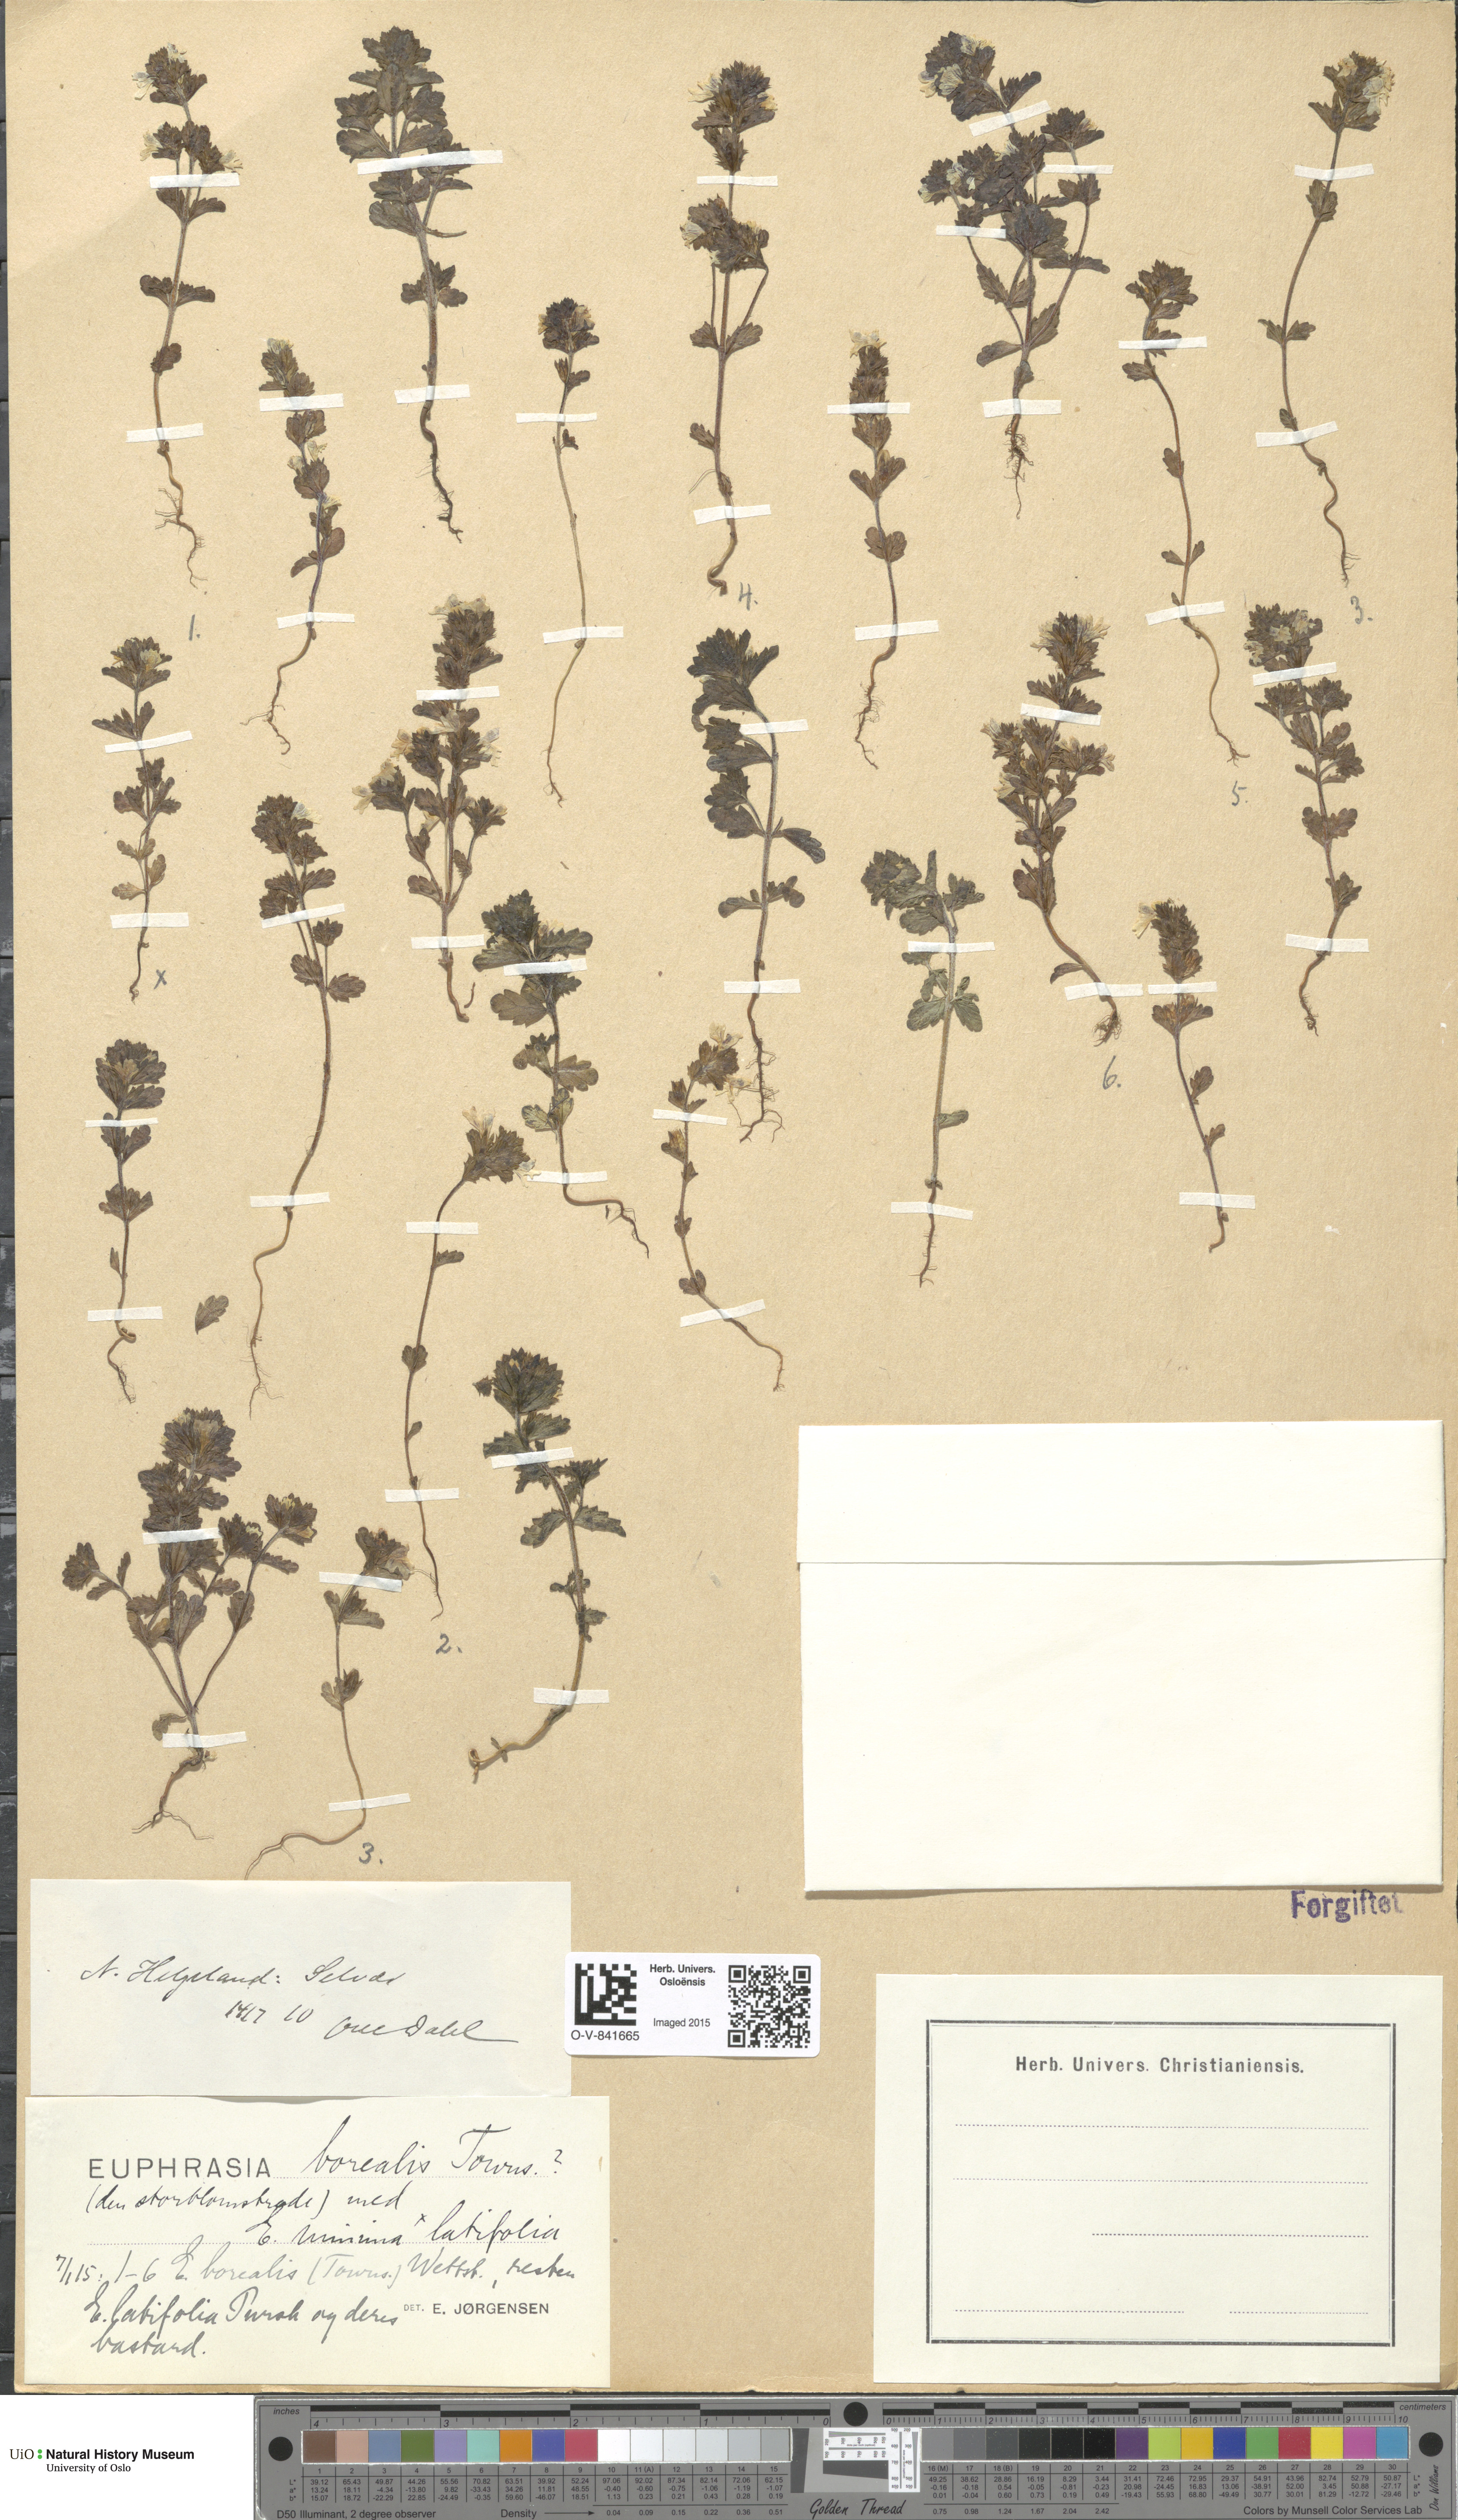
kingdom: Plantae
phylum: Tracheophyta
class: Magnoliopsida
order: Lamiales
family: Orobanchaceae
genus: Euphrasia
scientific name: Euphrasia arctica
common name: An eyebright
